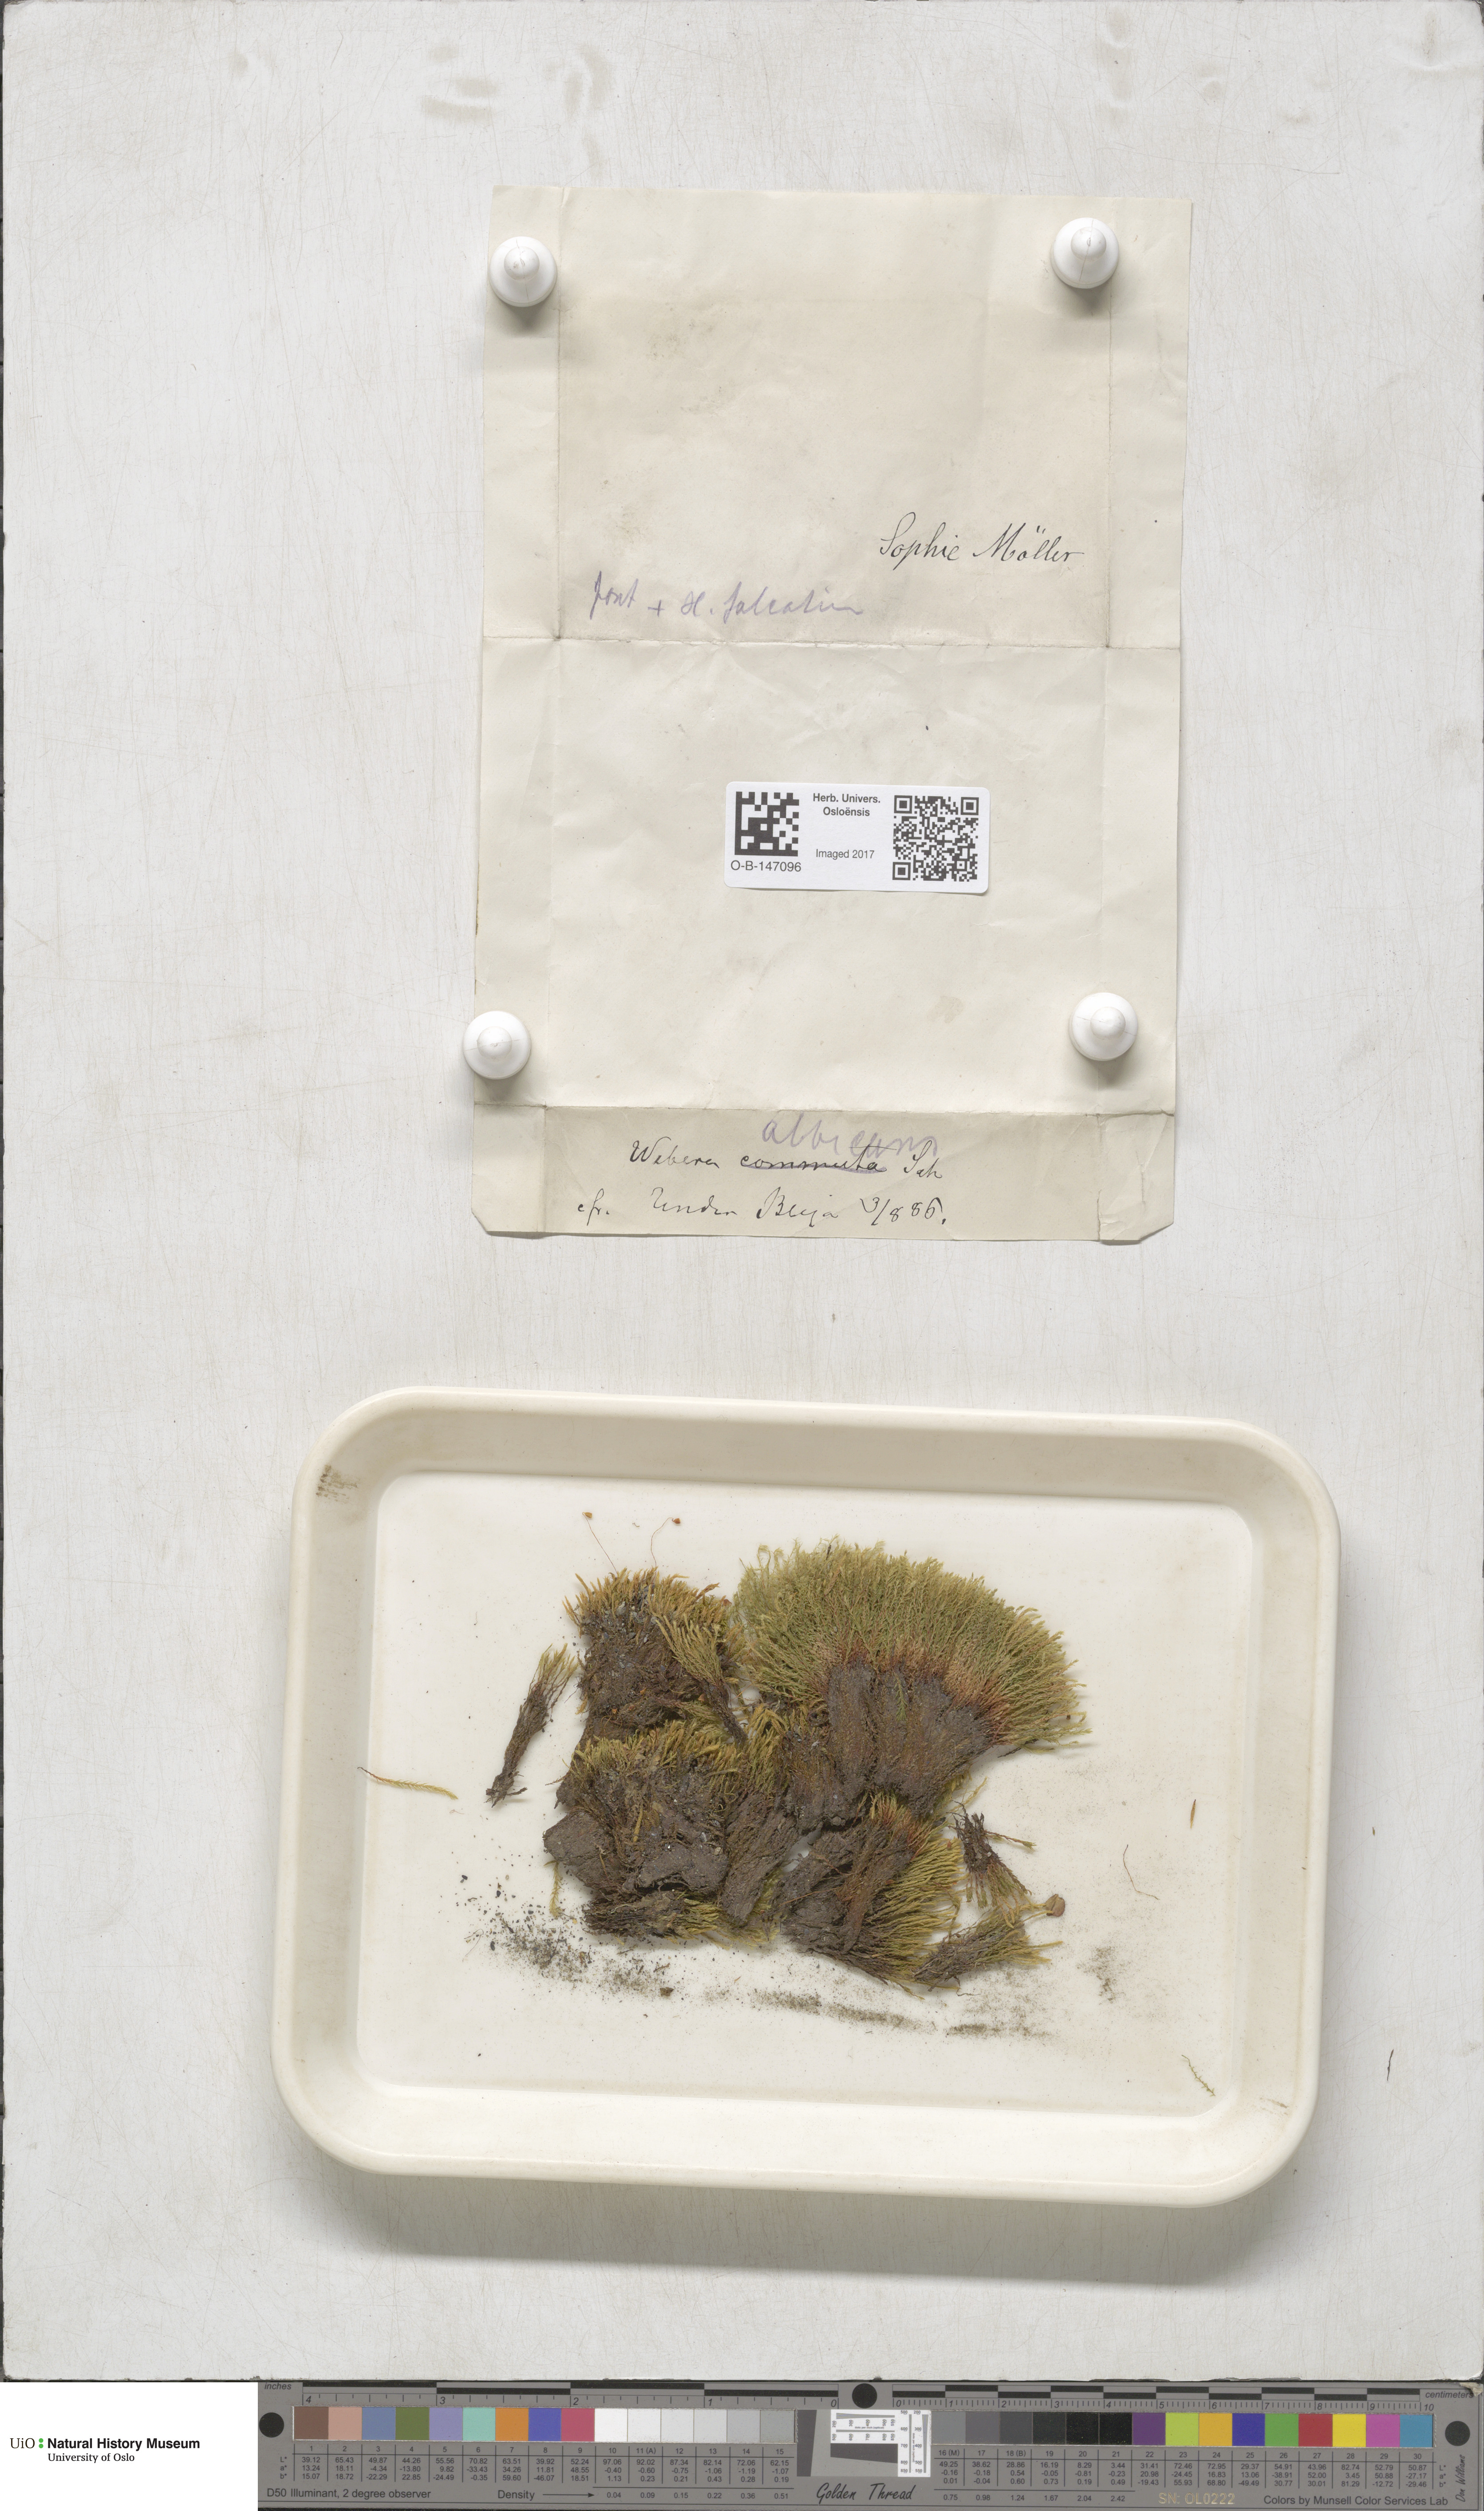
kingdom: Plantae
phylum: Bryophyta
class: Bryopsida
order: Bryales
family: Mniaceae
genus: Pohlia
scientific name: Pohlia wahlenbergii
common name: Wahlenberg's nodding moss
